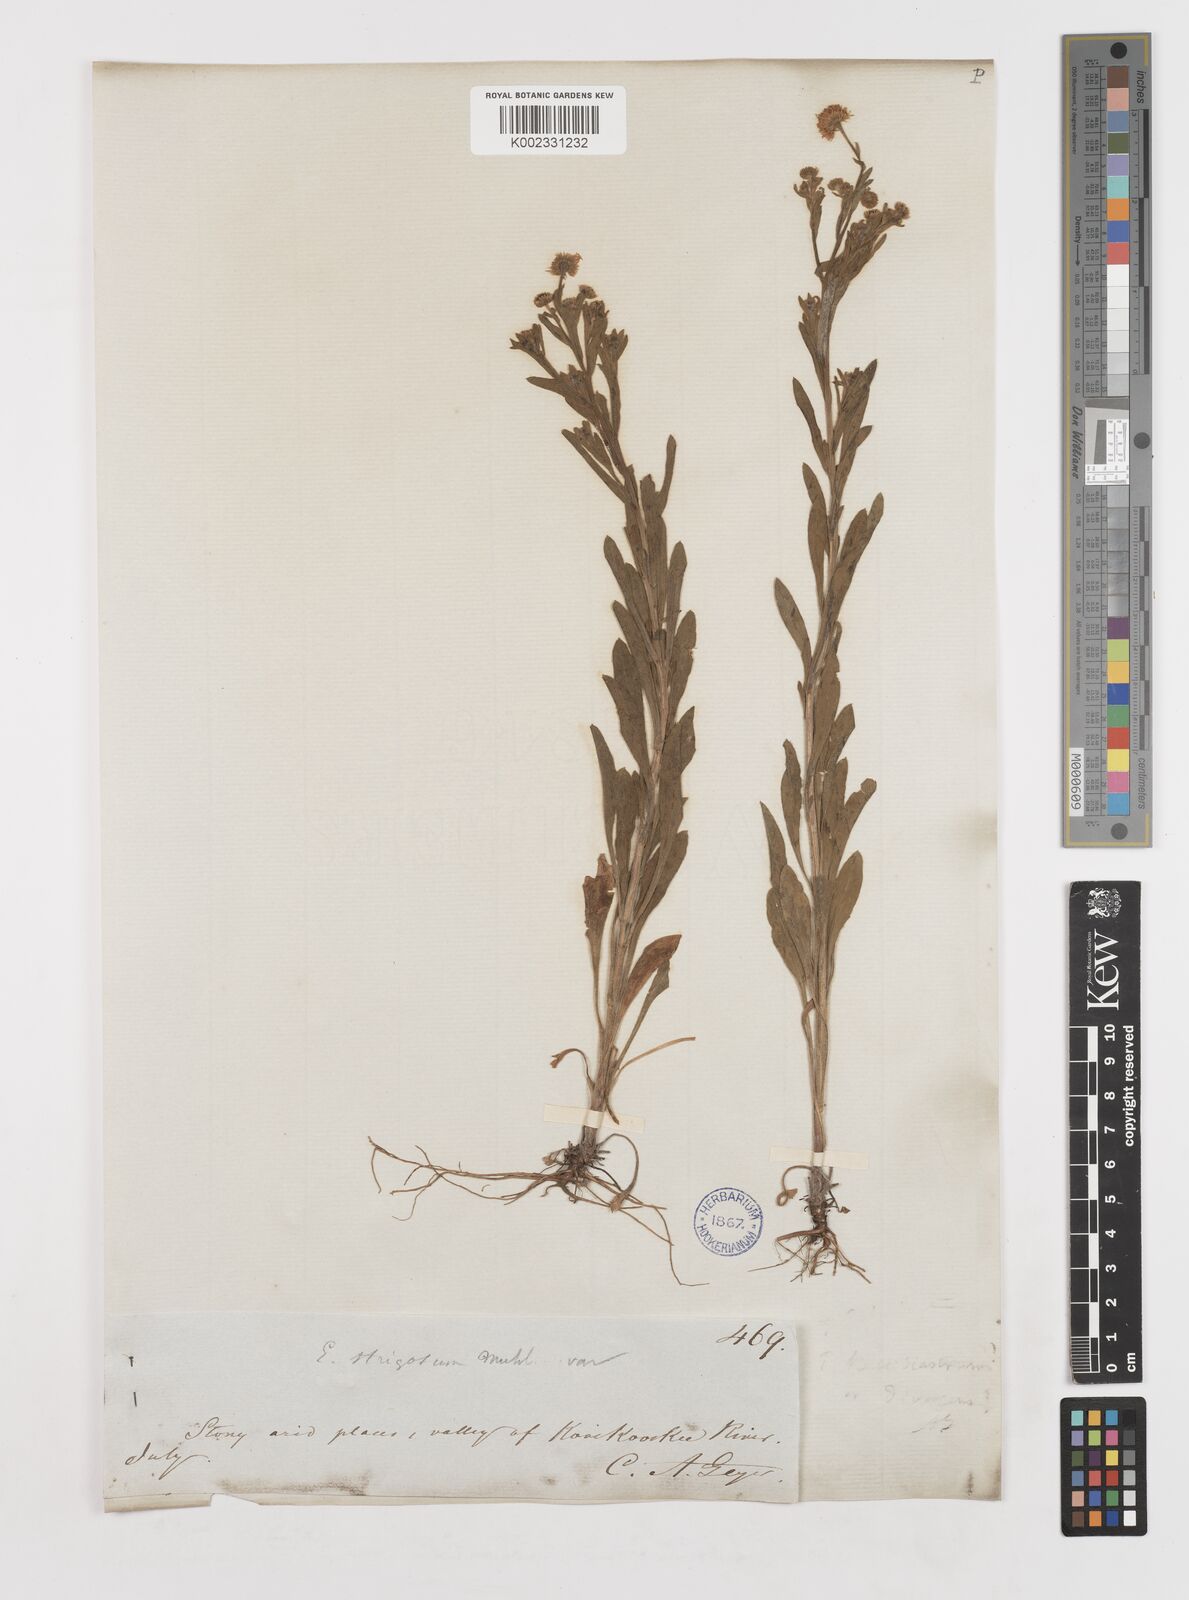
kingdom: Plantae
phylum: Tracheophyta
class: Magnoliopsida
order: Asterales
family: Asteraceae
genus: Erigeron
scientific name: Erigeron strigosus
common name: Common eastern fleabane
